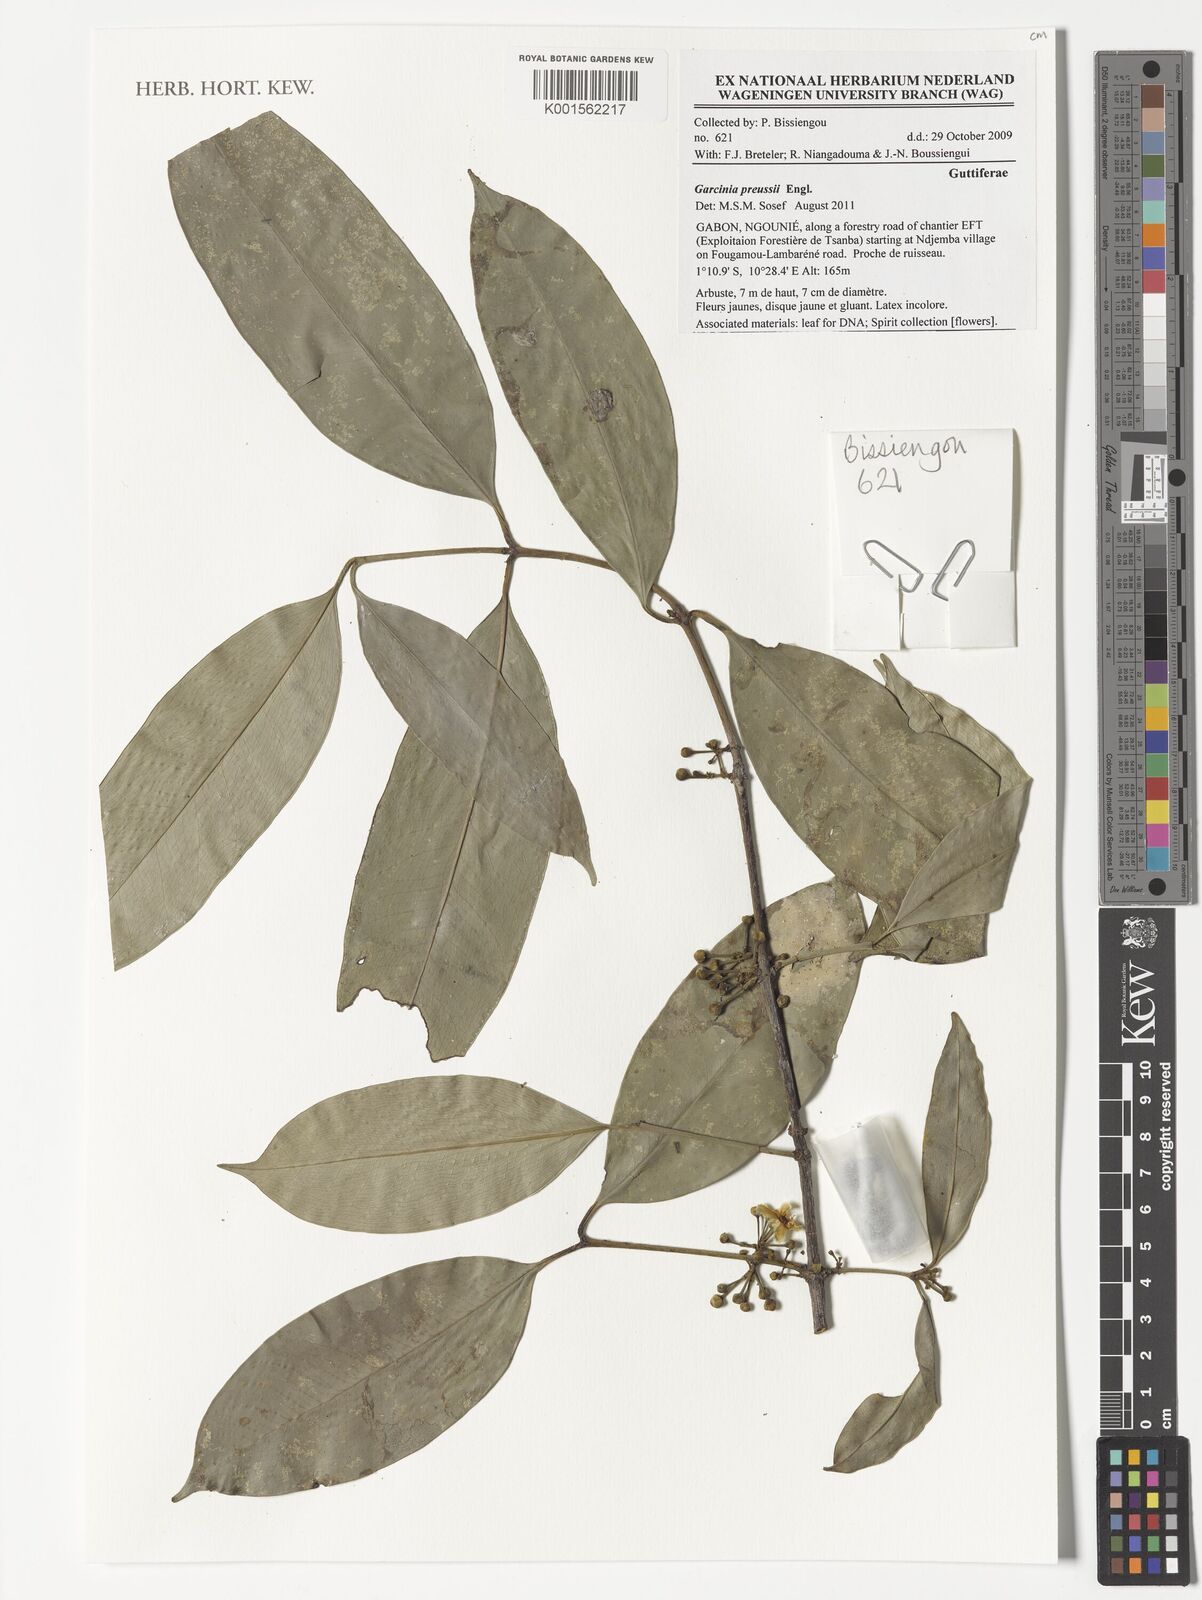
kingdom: Plantae
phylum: Tracheophyta
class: Magnoliopsida
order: Malpighiales
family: Clusiaceae
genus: Garcinia
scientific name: Garcinia preussii
